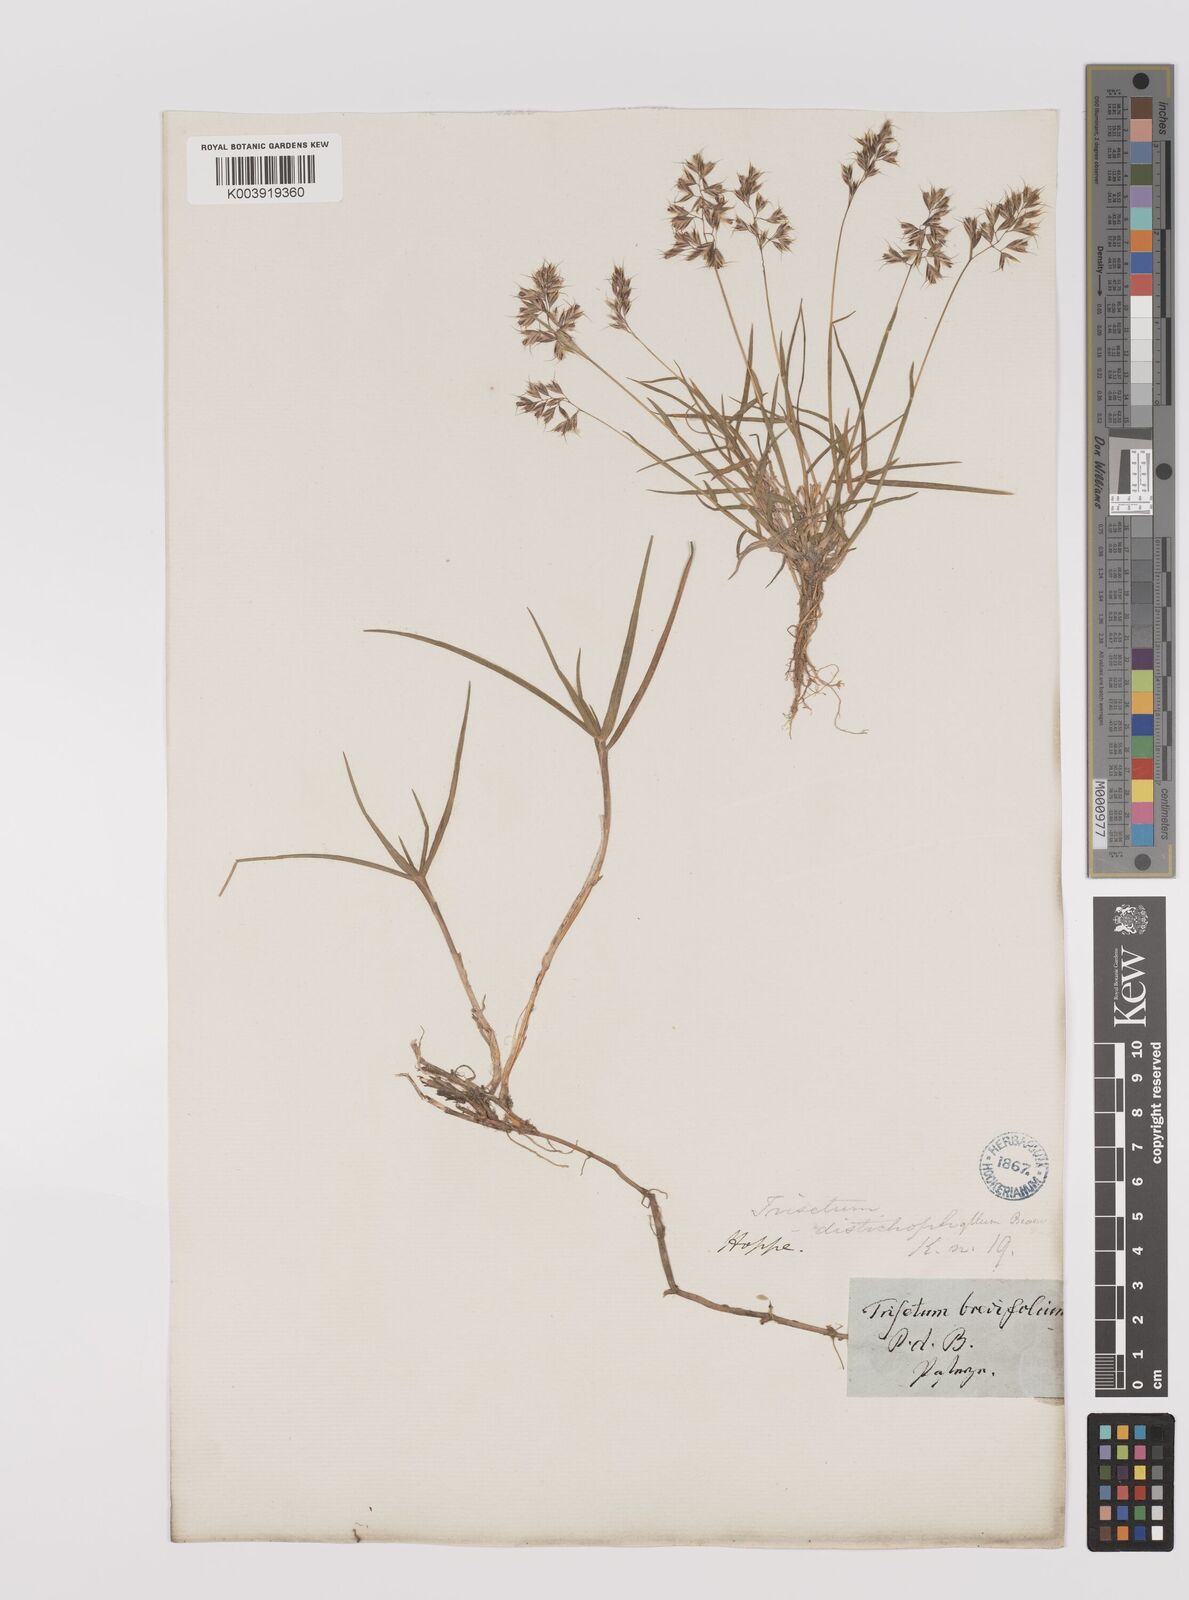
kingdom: Plantae
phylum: Tracheophyta
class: Liliopsida
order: Poales
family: Poaceae
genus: Acrospelion
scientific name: Acrospelion distichophyllum
